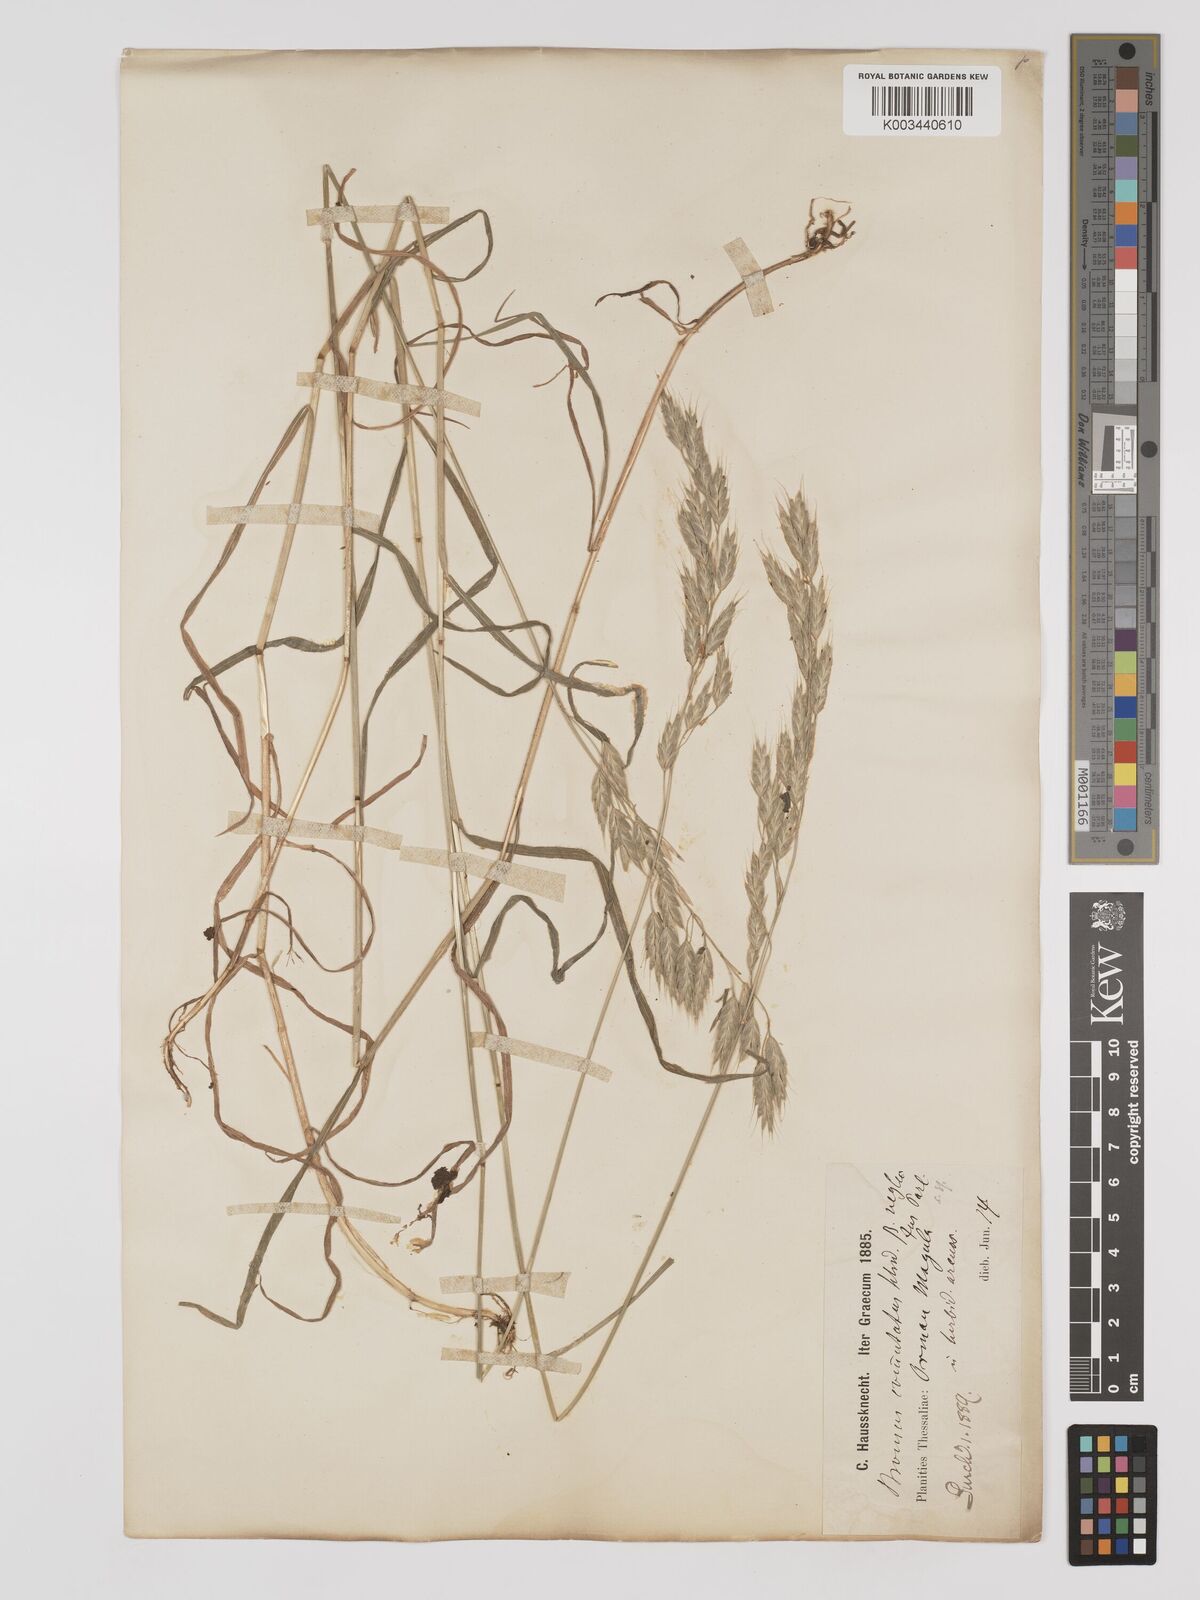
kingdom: Plantae
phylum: Tracheophyta
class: Liliopsida
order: Poales
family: Poaceae
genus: Bromus
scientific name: Bromus racemosus
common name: Bald brome
